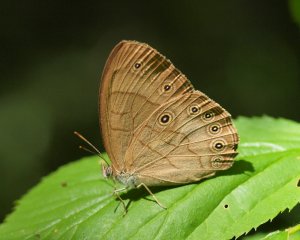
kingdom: Animalia
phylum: Arthropoda
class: Insecta
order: Lepidoptera
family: Nymphalidae
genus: Lethe
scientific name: Lethe eurydice
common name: Appalachian Eyed Brown
